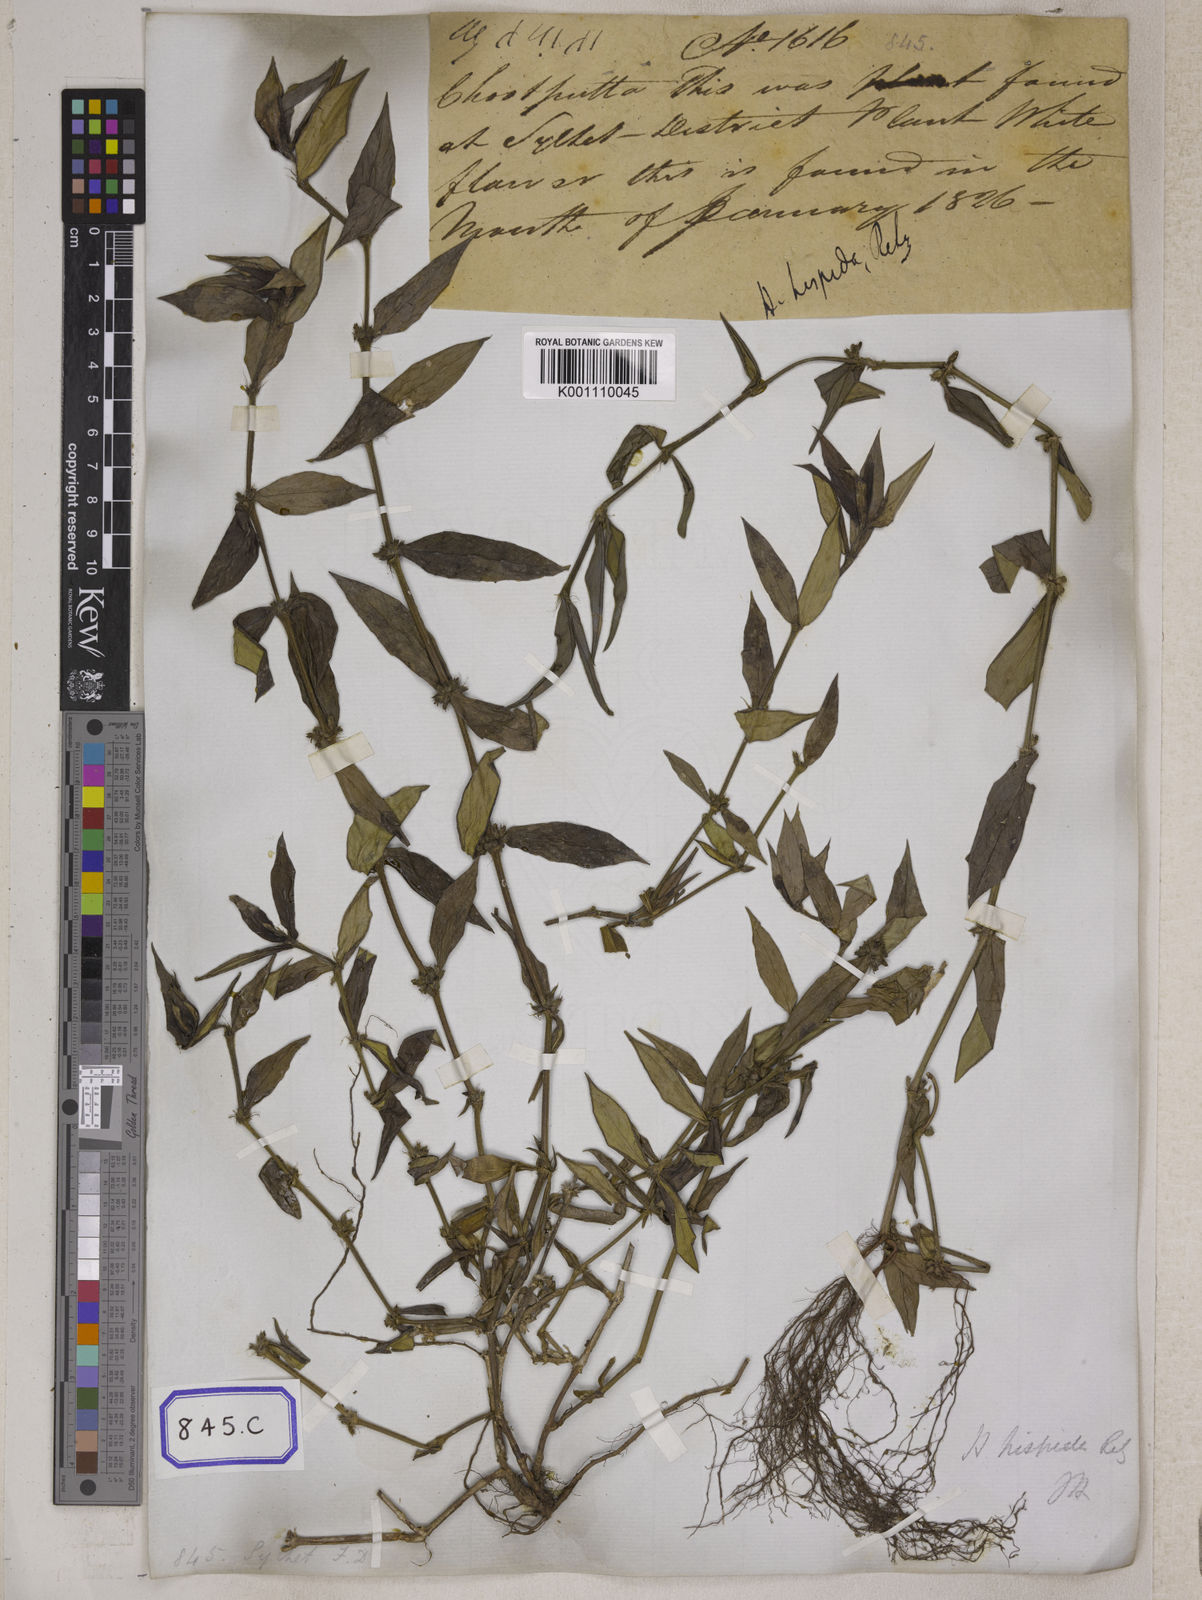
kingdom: Plantae
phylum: Tracheophyta
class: Magnoliopsida
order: Gentianales
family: Rubiaceae
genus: Scleromitrion
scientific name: Scleromitrion verticillatum
